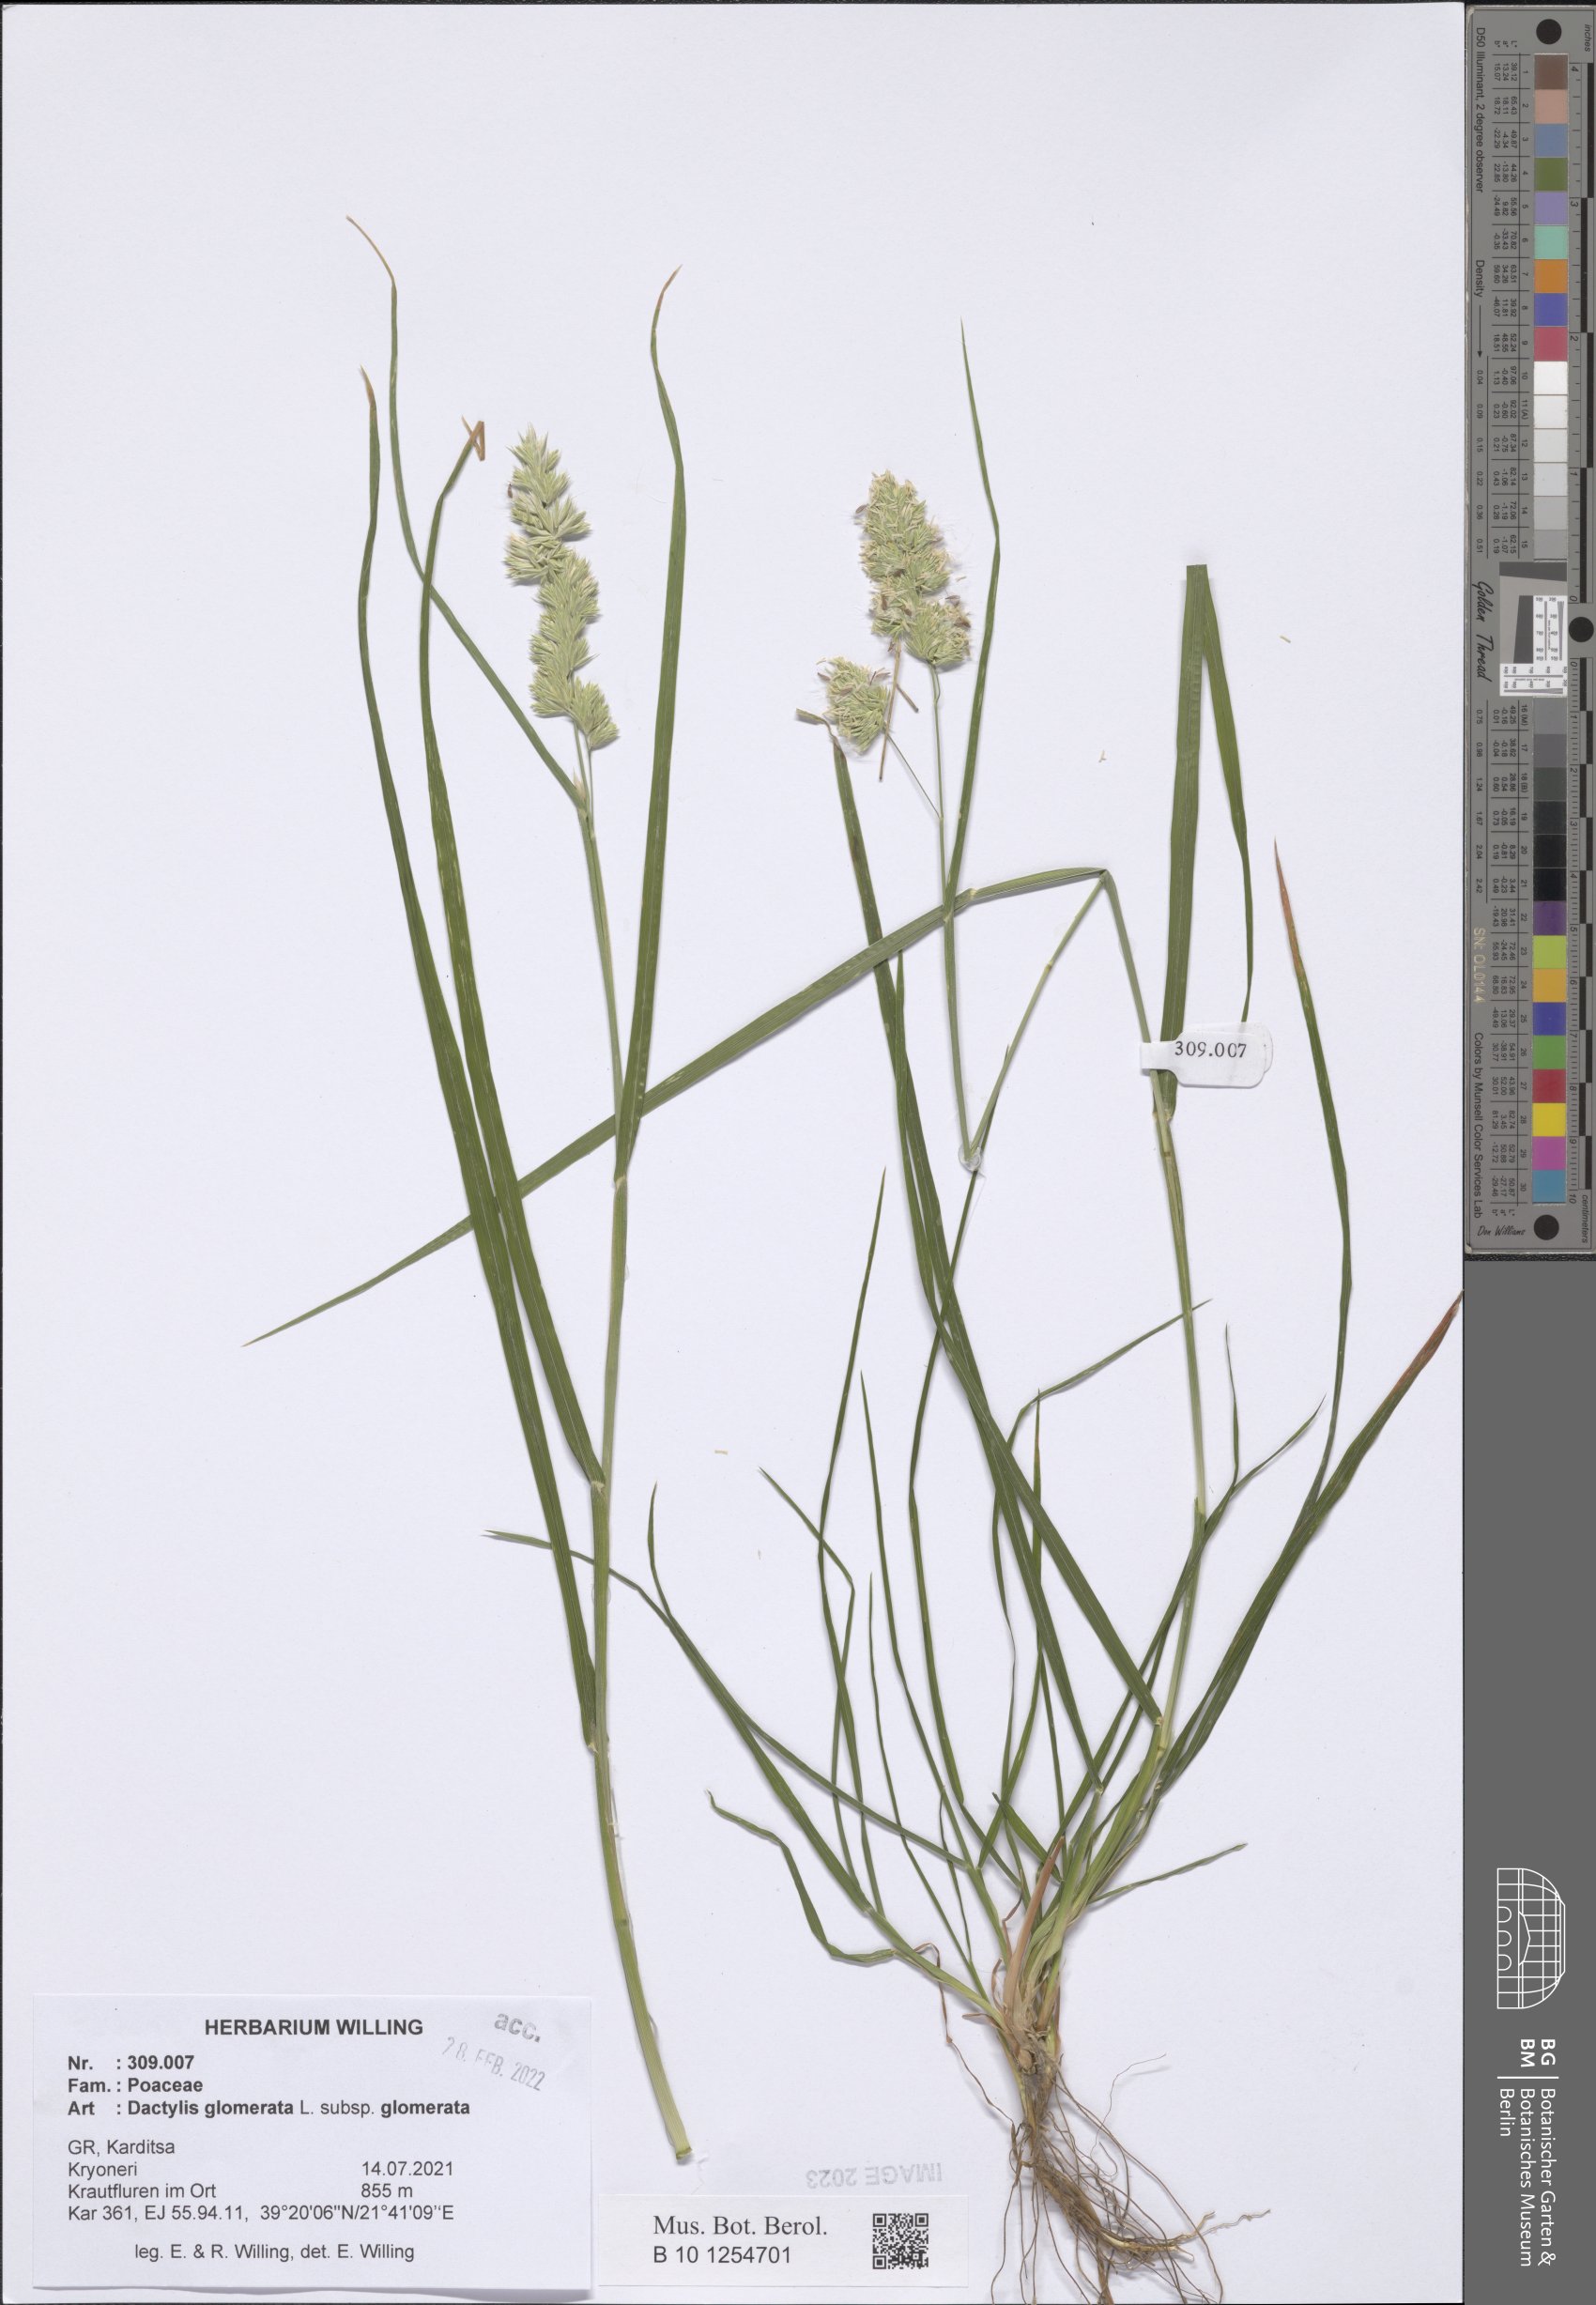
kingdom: Plantae
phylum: Tracheophyta
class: Liliopsida
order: Poales
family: Poaceae
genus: Dactylis
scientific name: Dactylis glomerata
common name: Orchardgrass
